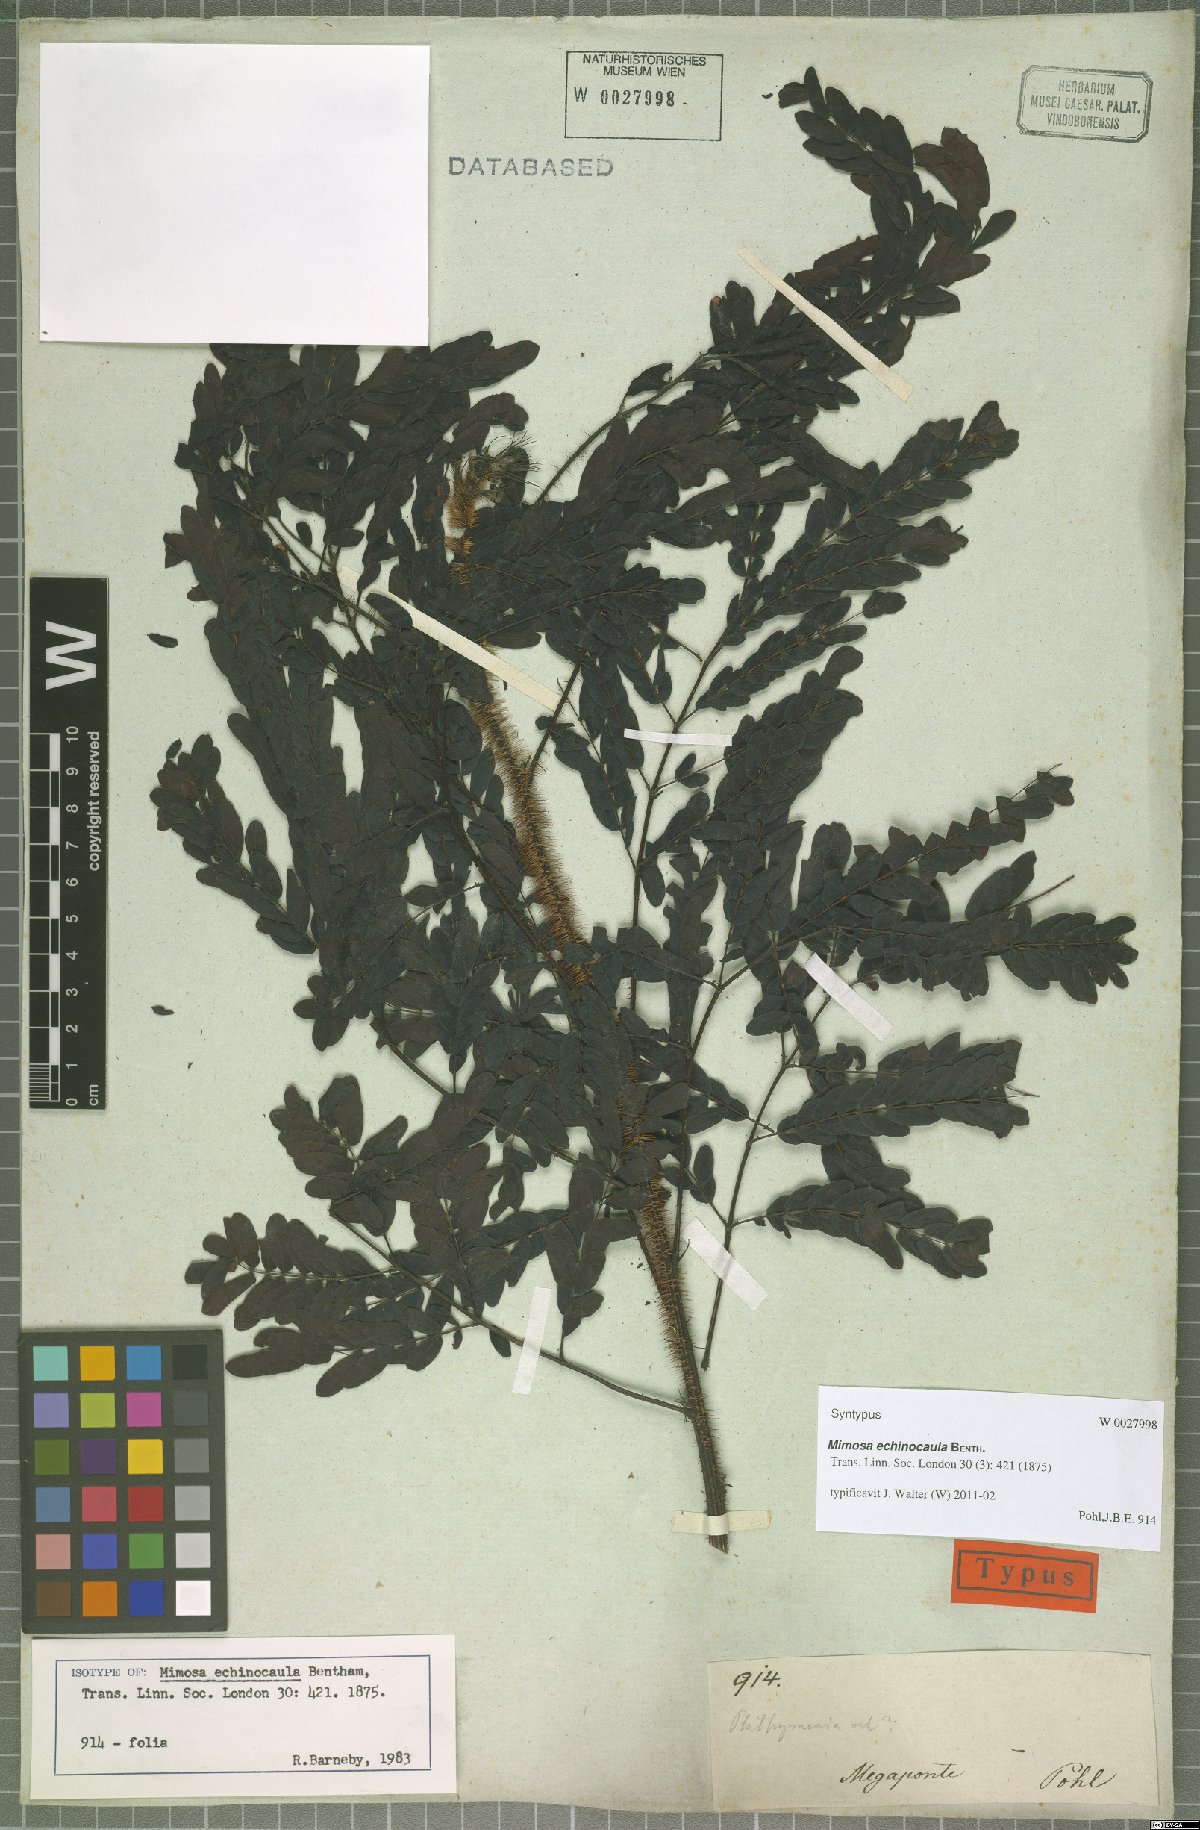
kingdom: Plantae
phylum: Tracheophyta
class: Magnoliopsida
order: Fabales
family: Fabaceae
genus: Mimosa
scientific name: Mimosa echinocaula
